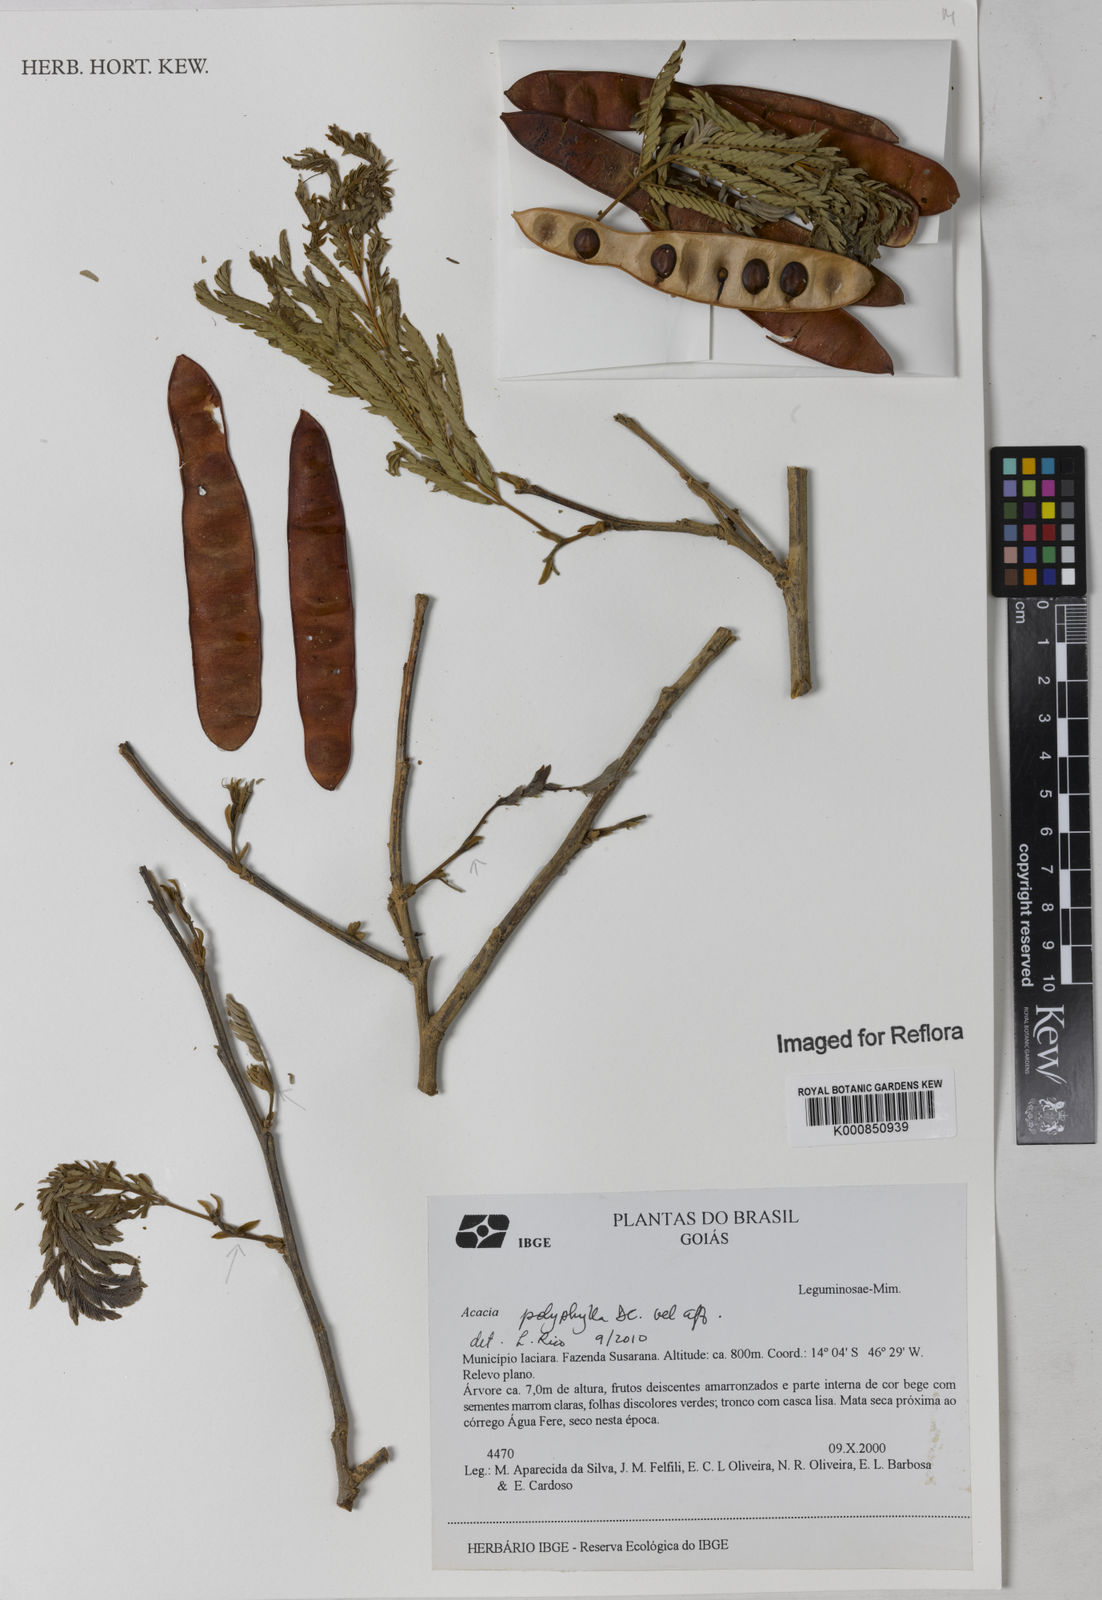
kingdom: Plantae
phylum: Tracheophyta
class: Magnoliopsida
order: Fabales
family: Fabaceae
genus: Senegalia
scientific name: Senegalia polyphylla
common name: White-tamarind
